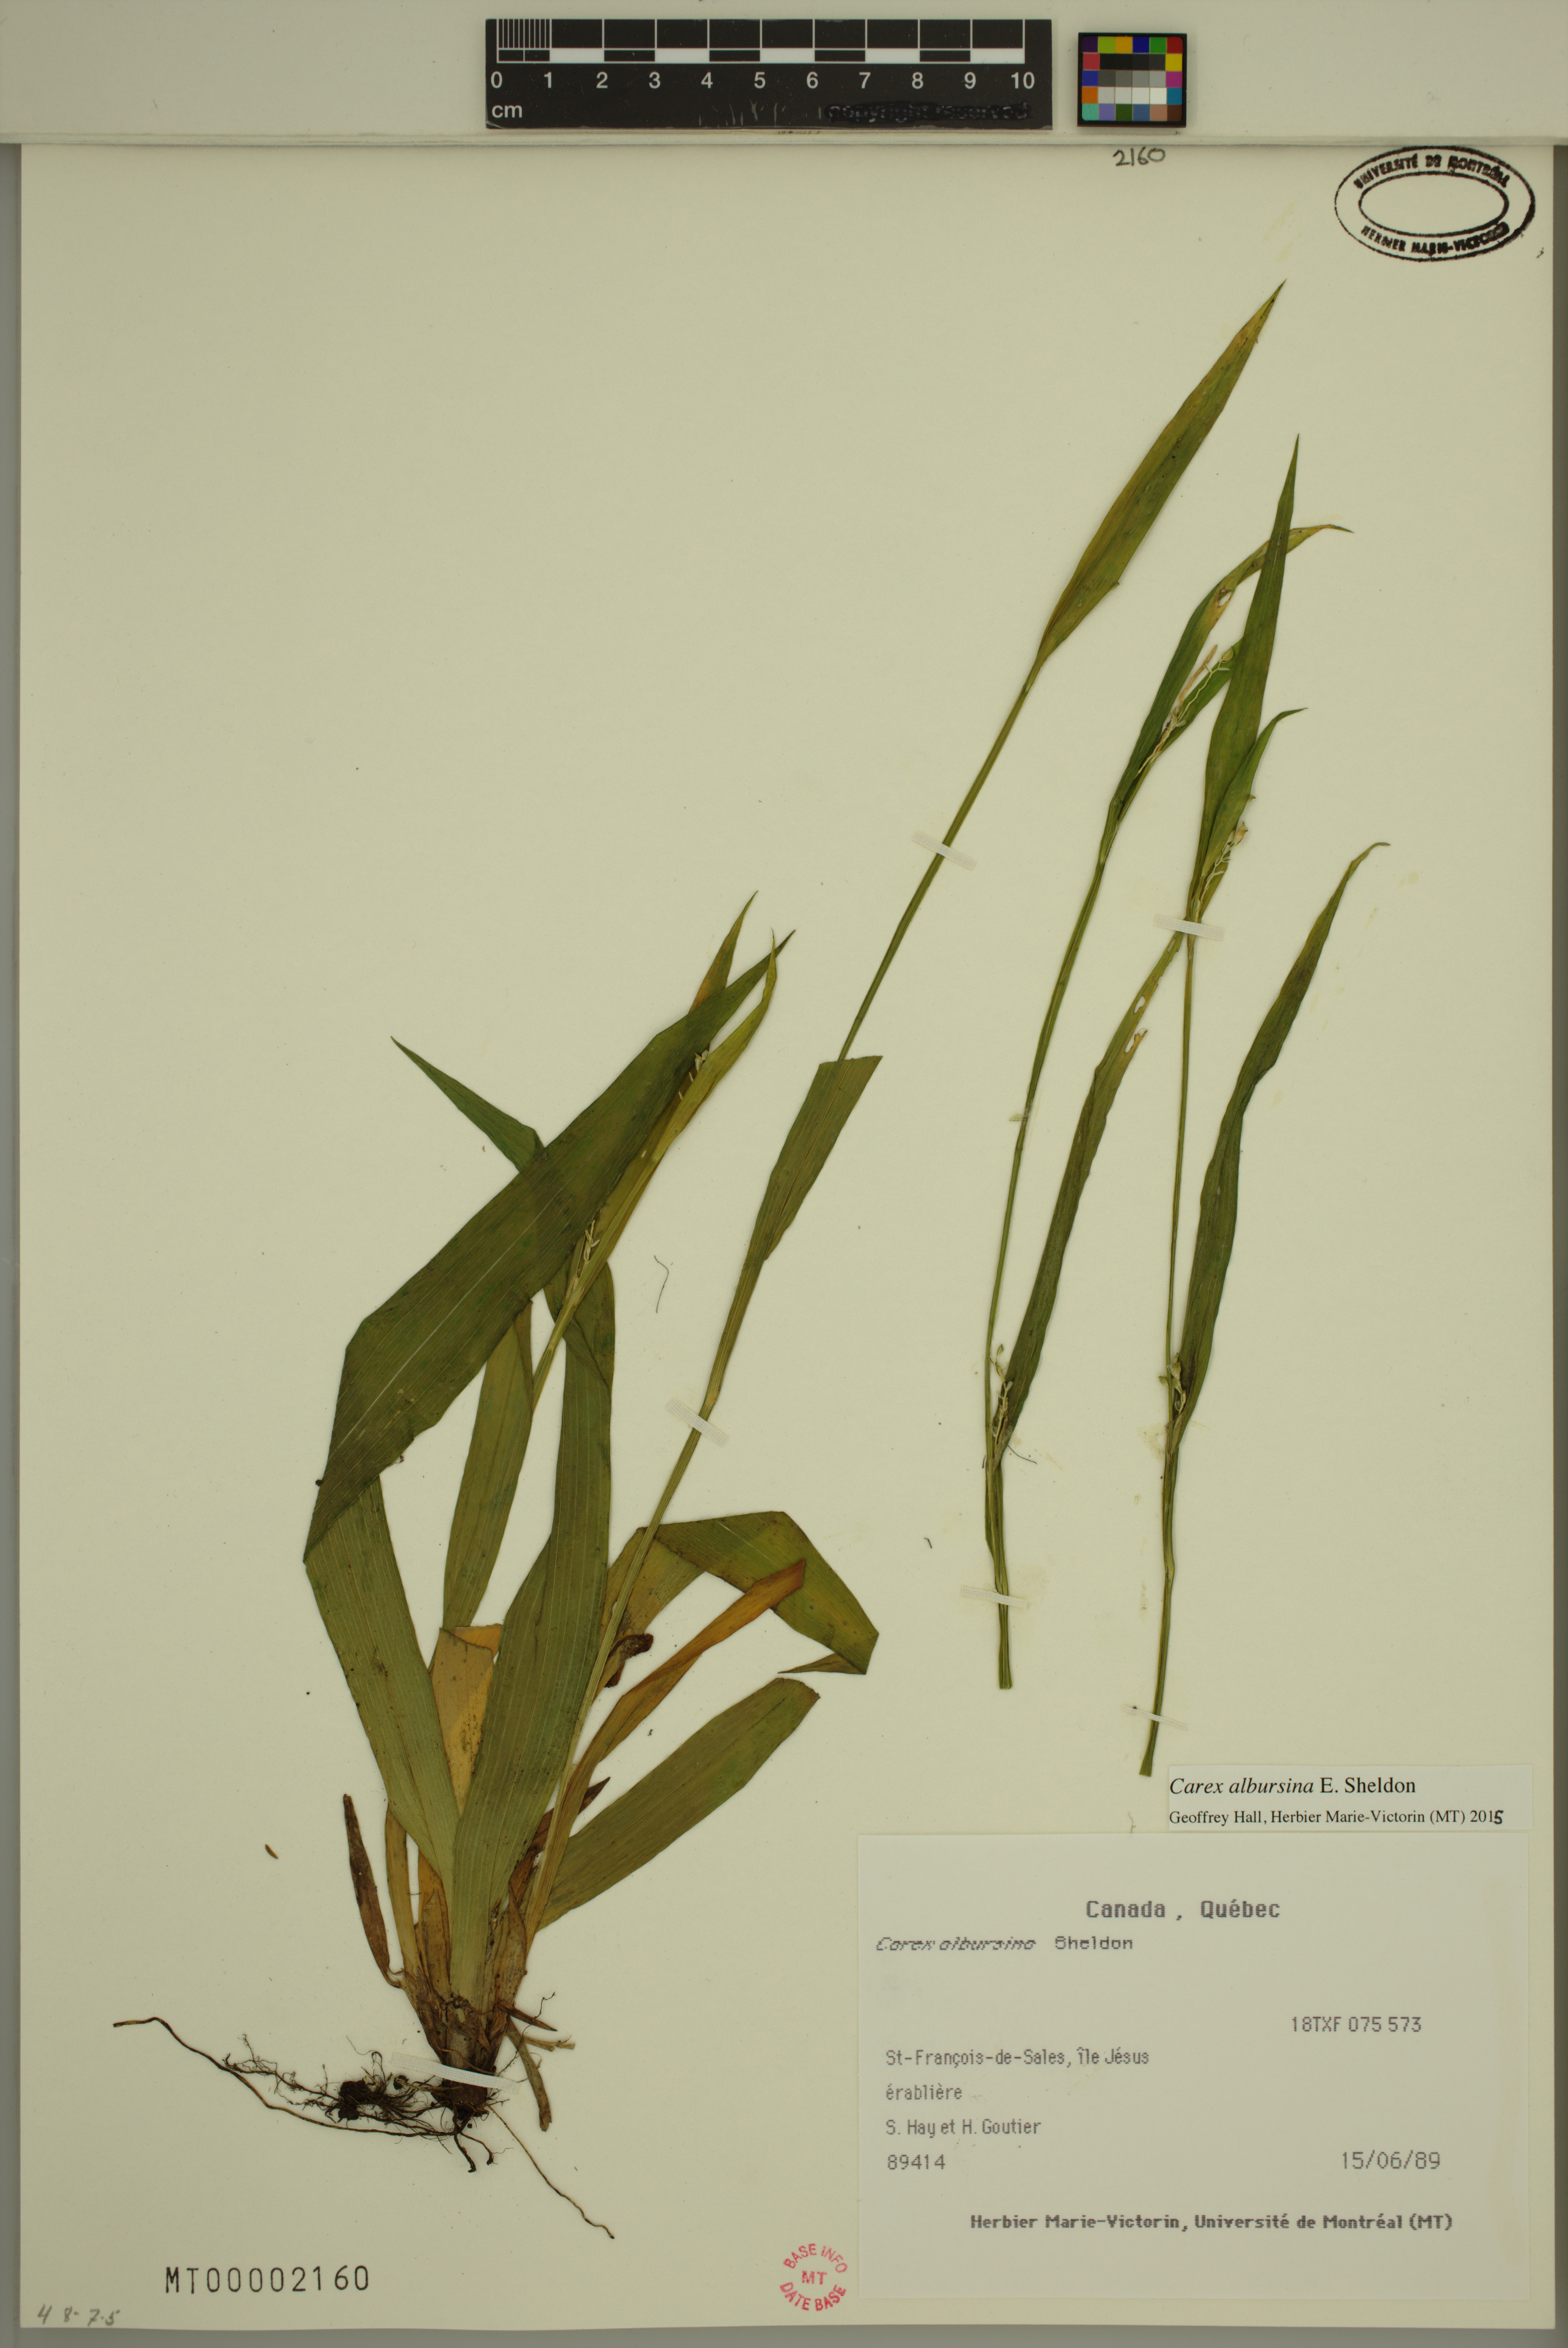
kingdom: Plantae
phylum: Tracheophyta
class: Liliopsida
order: Poales
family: Cyperaceae
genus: Carex
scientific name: Carex albursina
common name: Blunt-scale wood sedge
